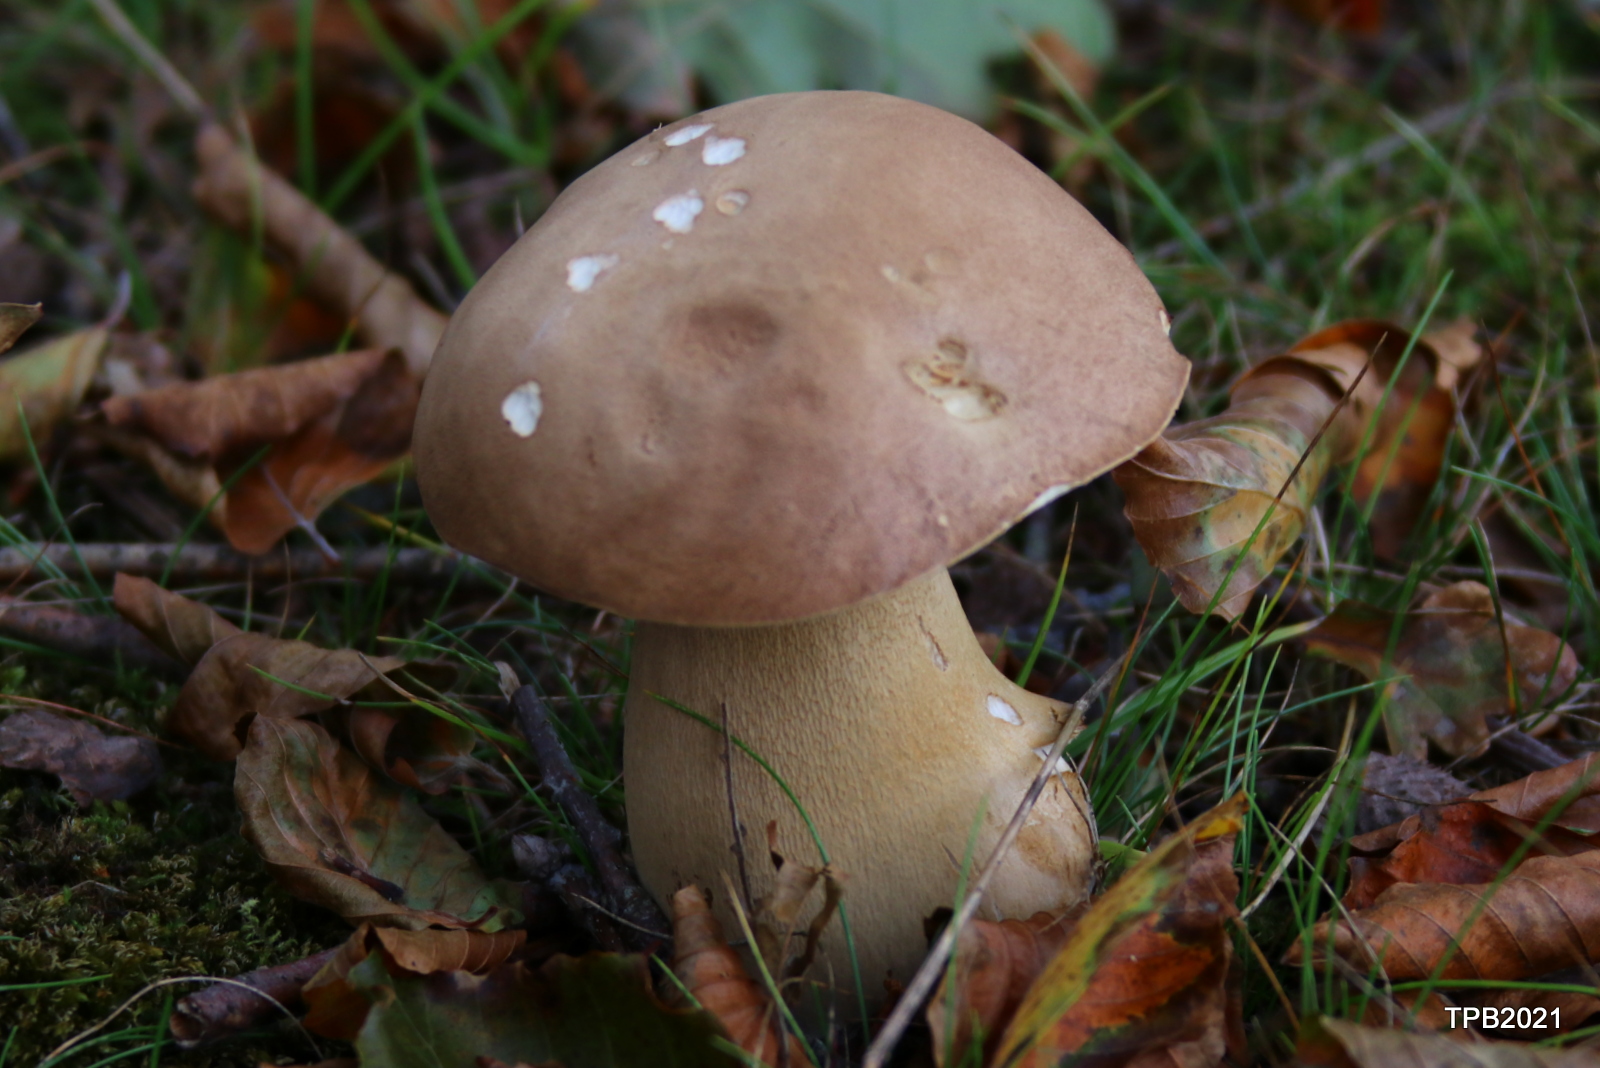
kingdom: Fungi
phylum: Basidiomycota
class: Agaricomycetes
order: Boletales
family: Boletaceae
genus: Boletus
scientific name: Boletus reticulatus
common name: sommer-rørhat
